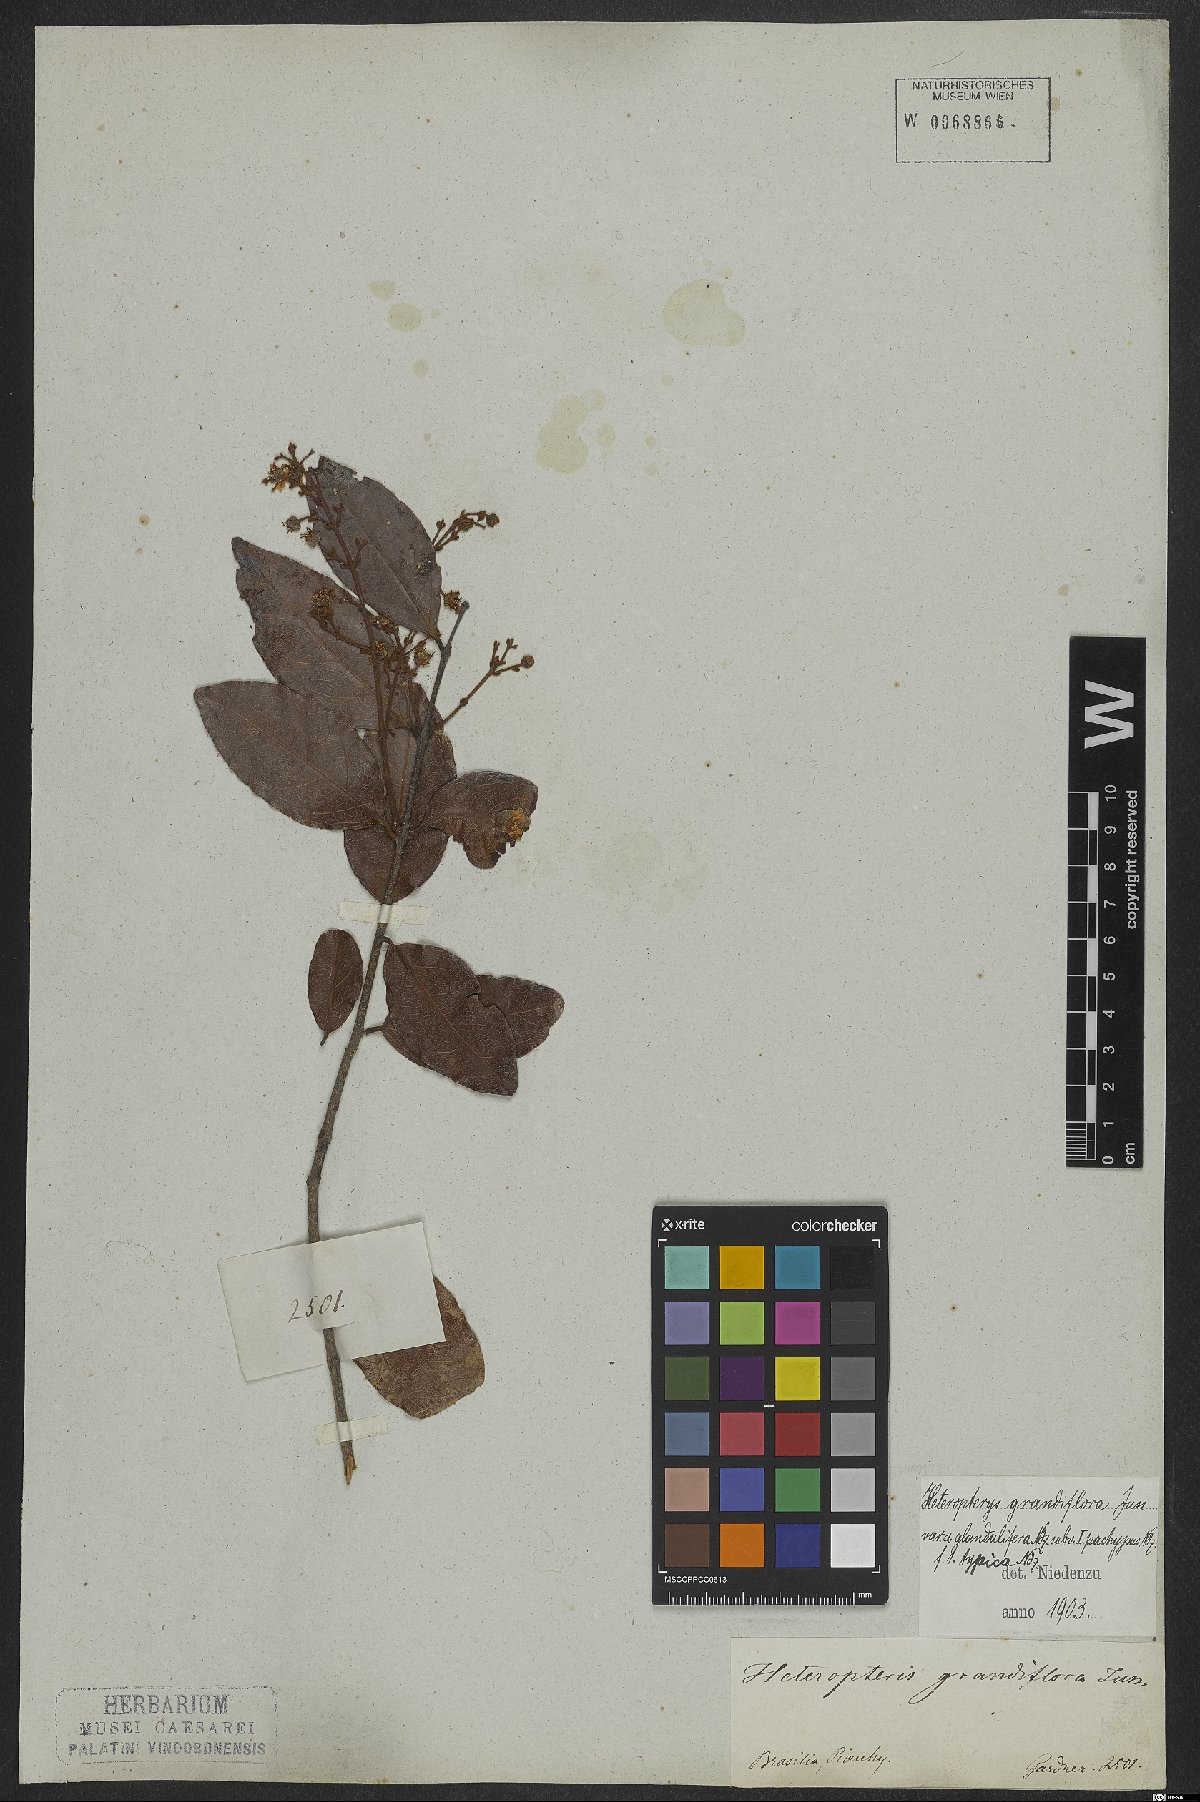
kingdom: Plantae
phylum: Tracheophyta
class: Magnoliopsida
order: Malpighiales
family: Malpighiaceae
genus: Heteropterys
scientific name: Heteropterys grandiflora
